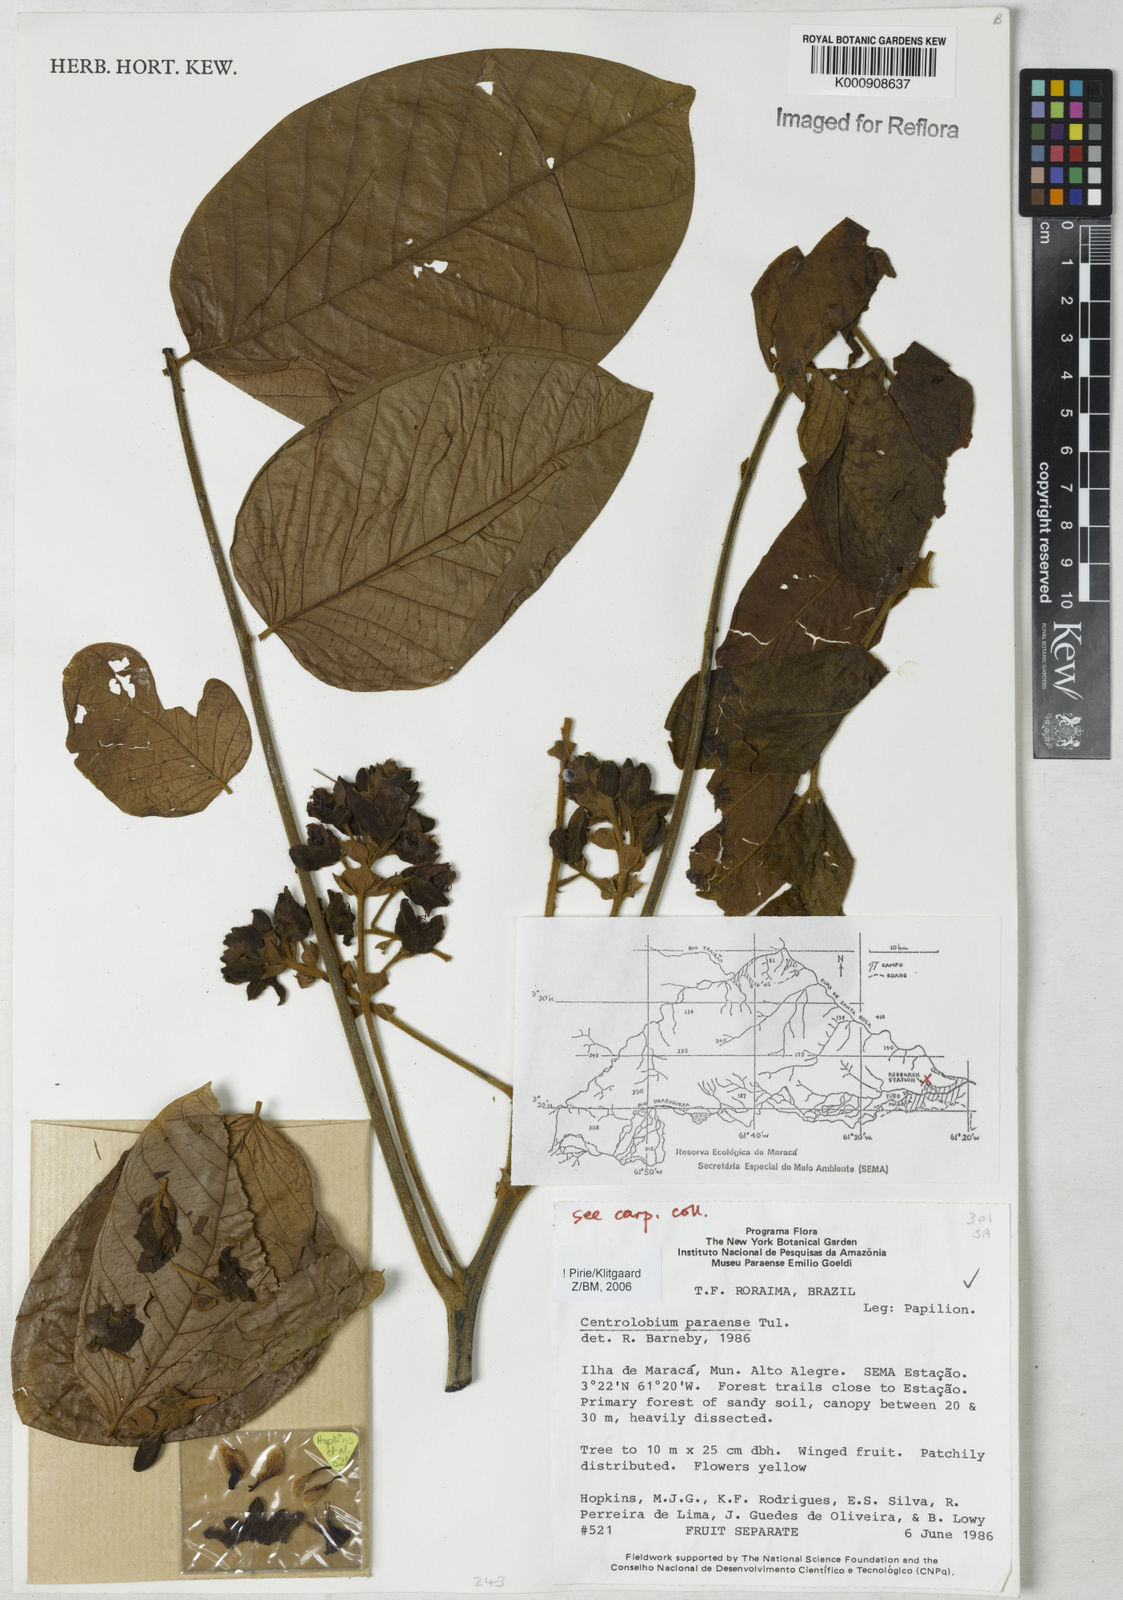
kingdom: Plantae
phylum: Tracheophyta
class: Magnoliopsida
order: Fabales
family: Fabaceae
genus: Centrolobium
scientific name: Centrolobium paraense
